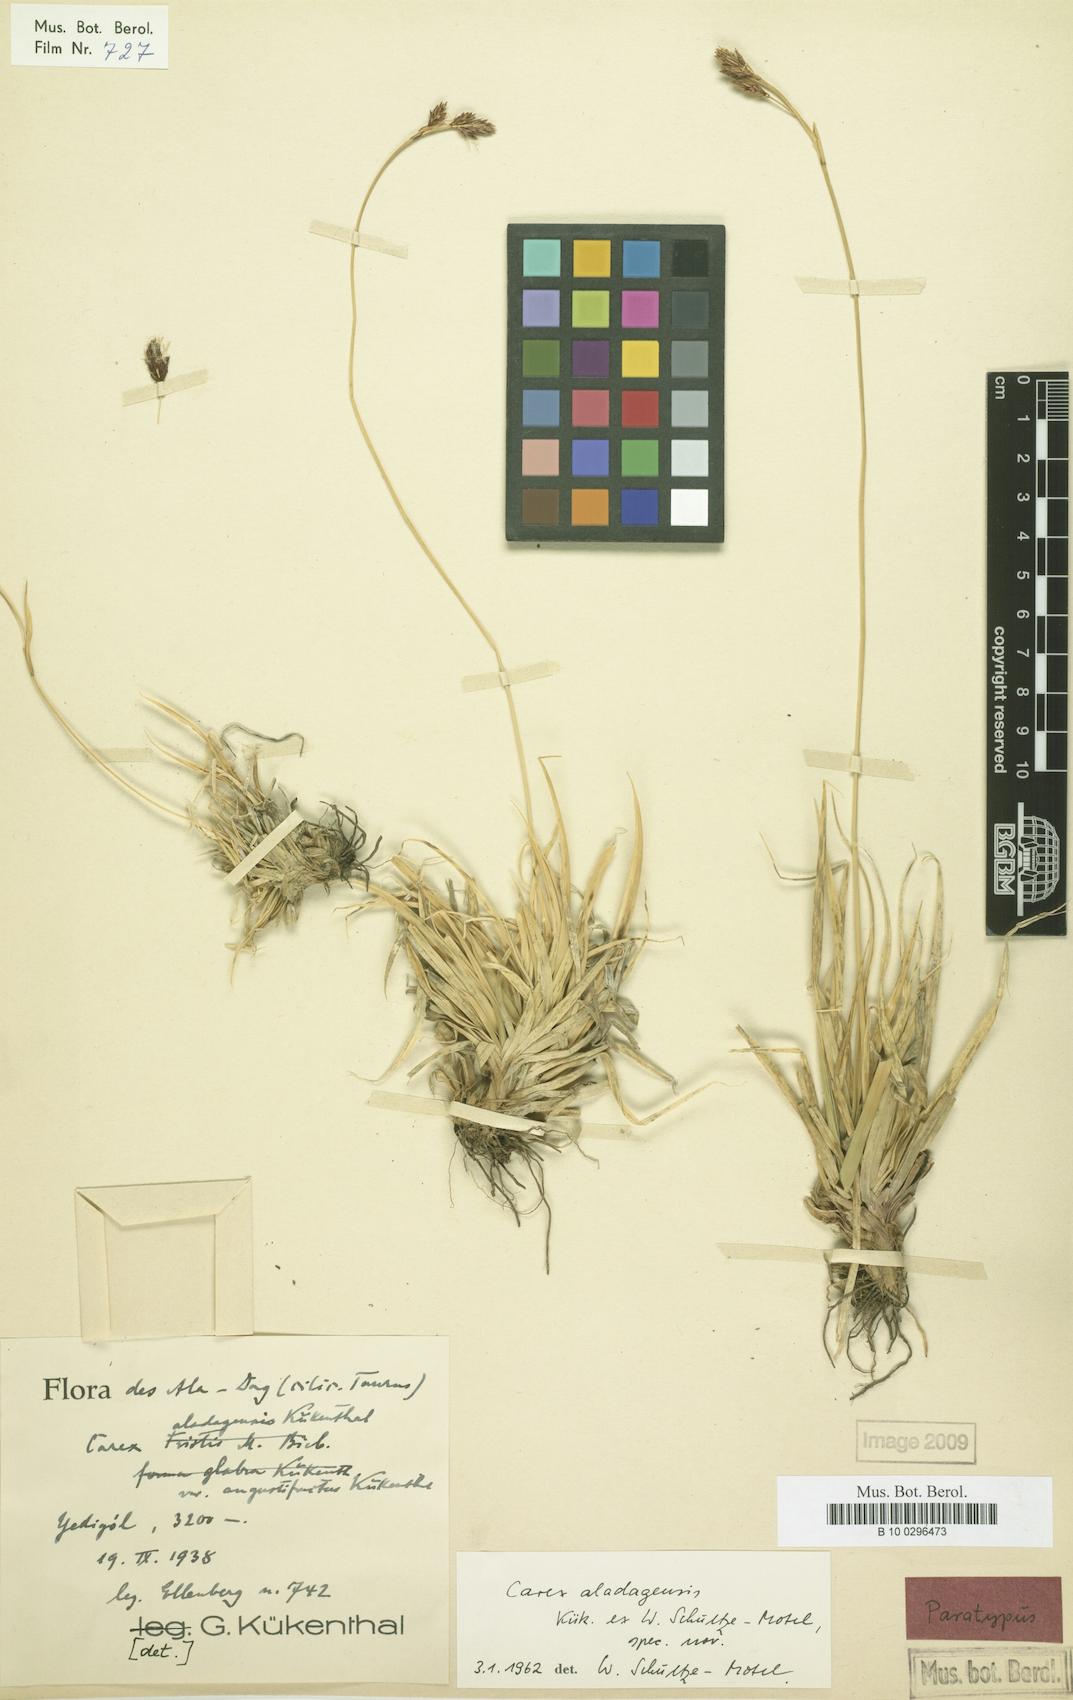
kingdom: Plantae
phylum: Tracheophyta
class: Liliopsida
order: Poales
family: Cyperaceae
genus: Carex
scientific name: Carex aladagensis
